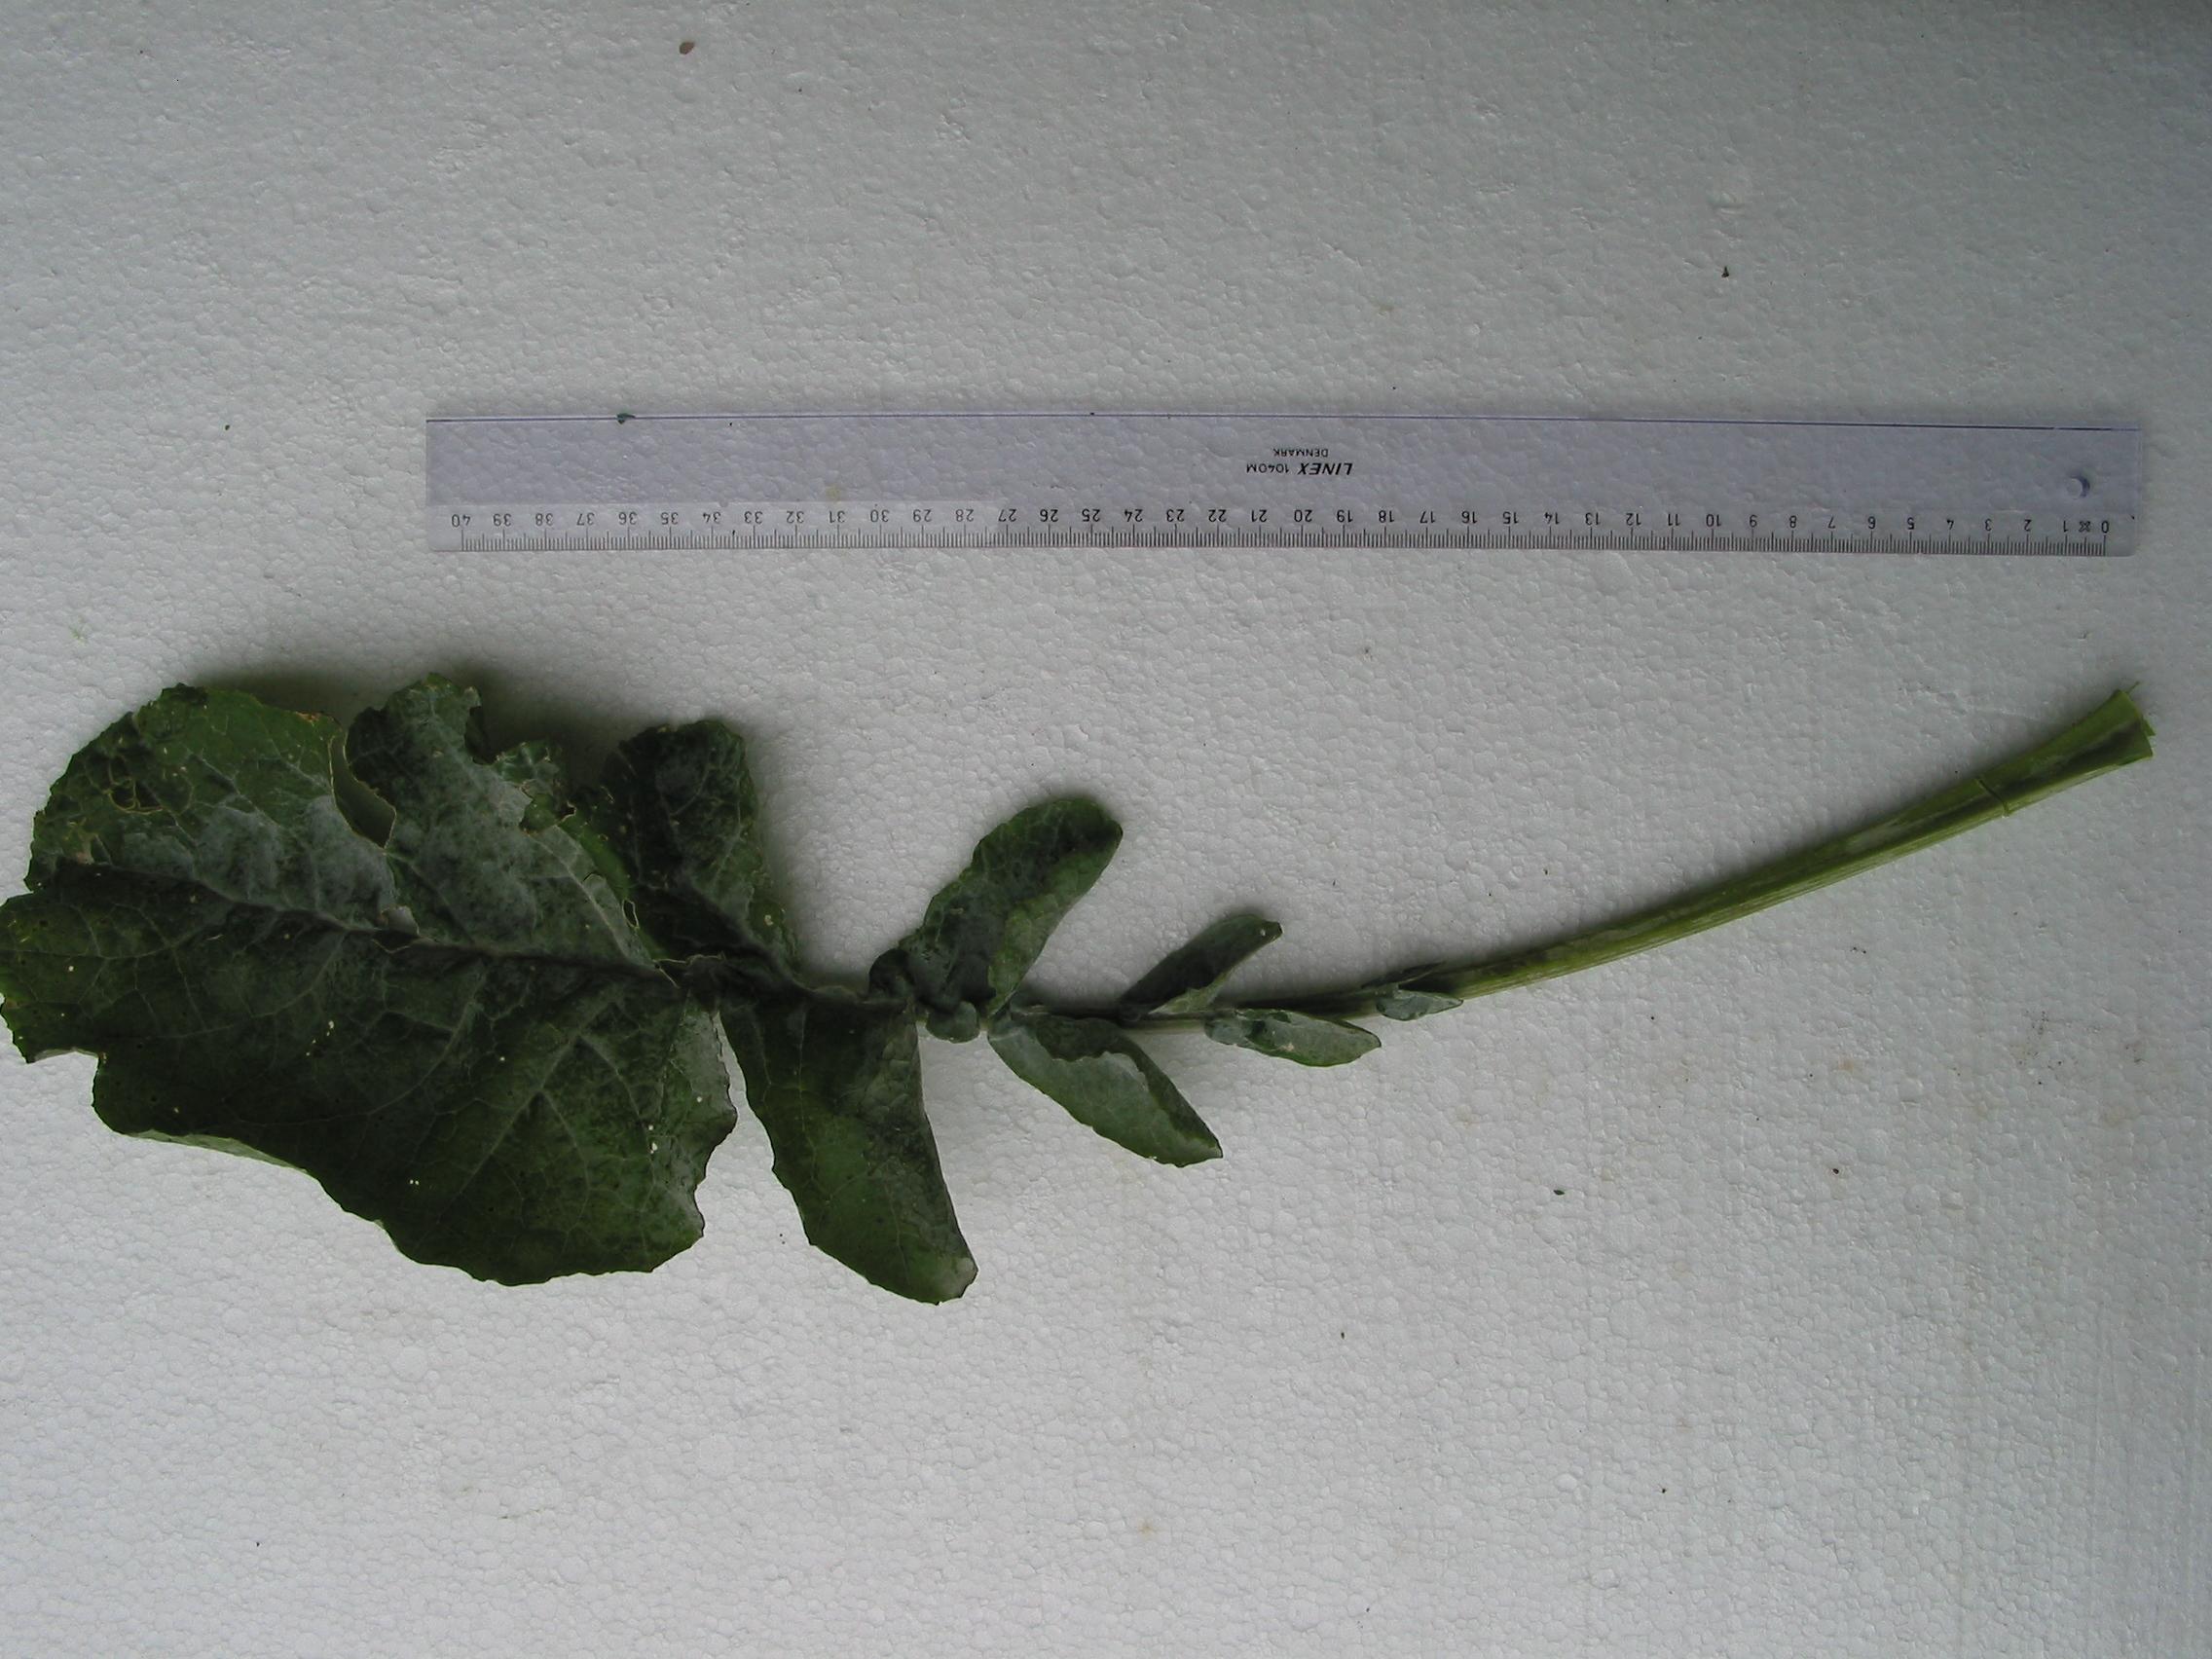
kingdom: Plantae
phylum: Tracheophyta
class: Magnoliopsida
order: Brassicales
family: Brassicaceae
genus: Brassica
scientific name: Brassica napus
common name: Rape
